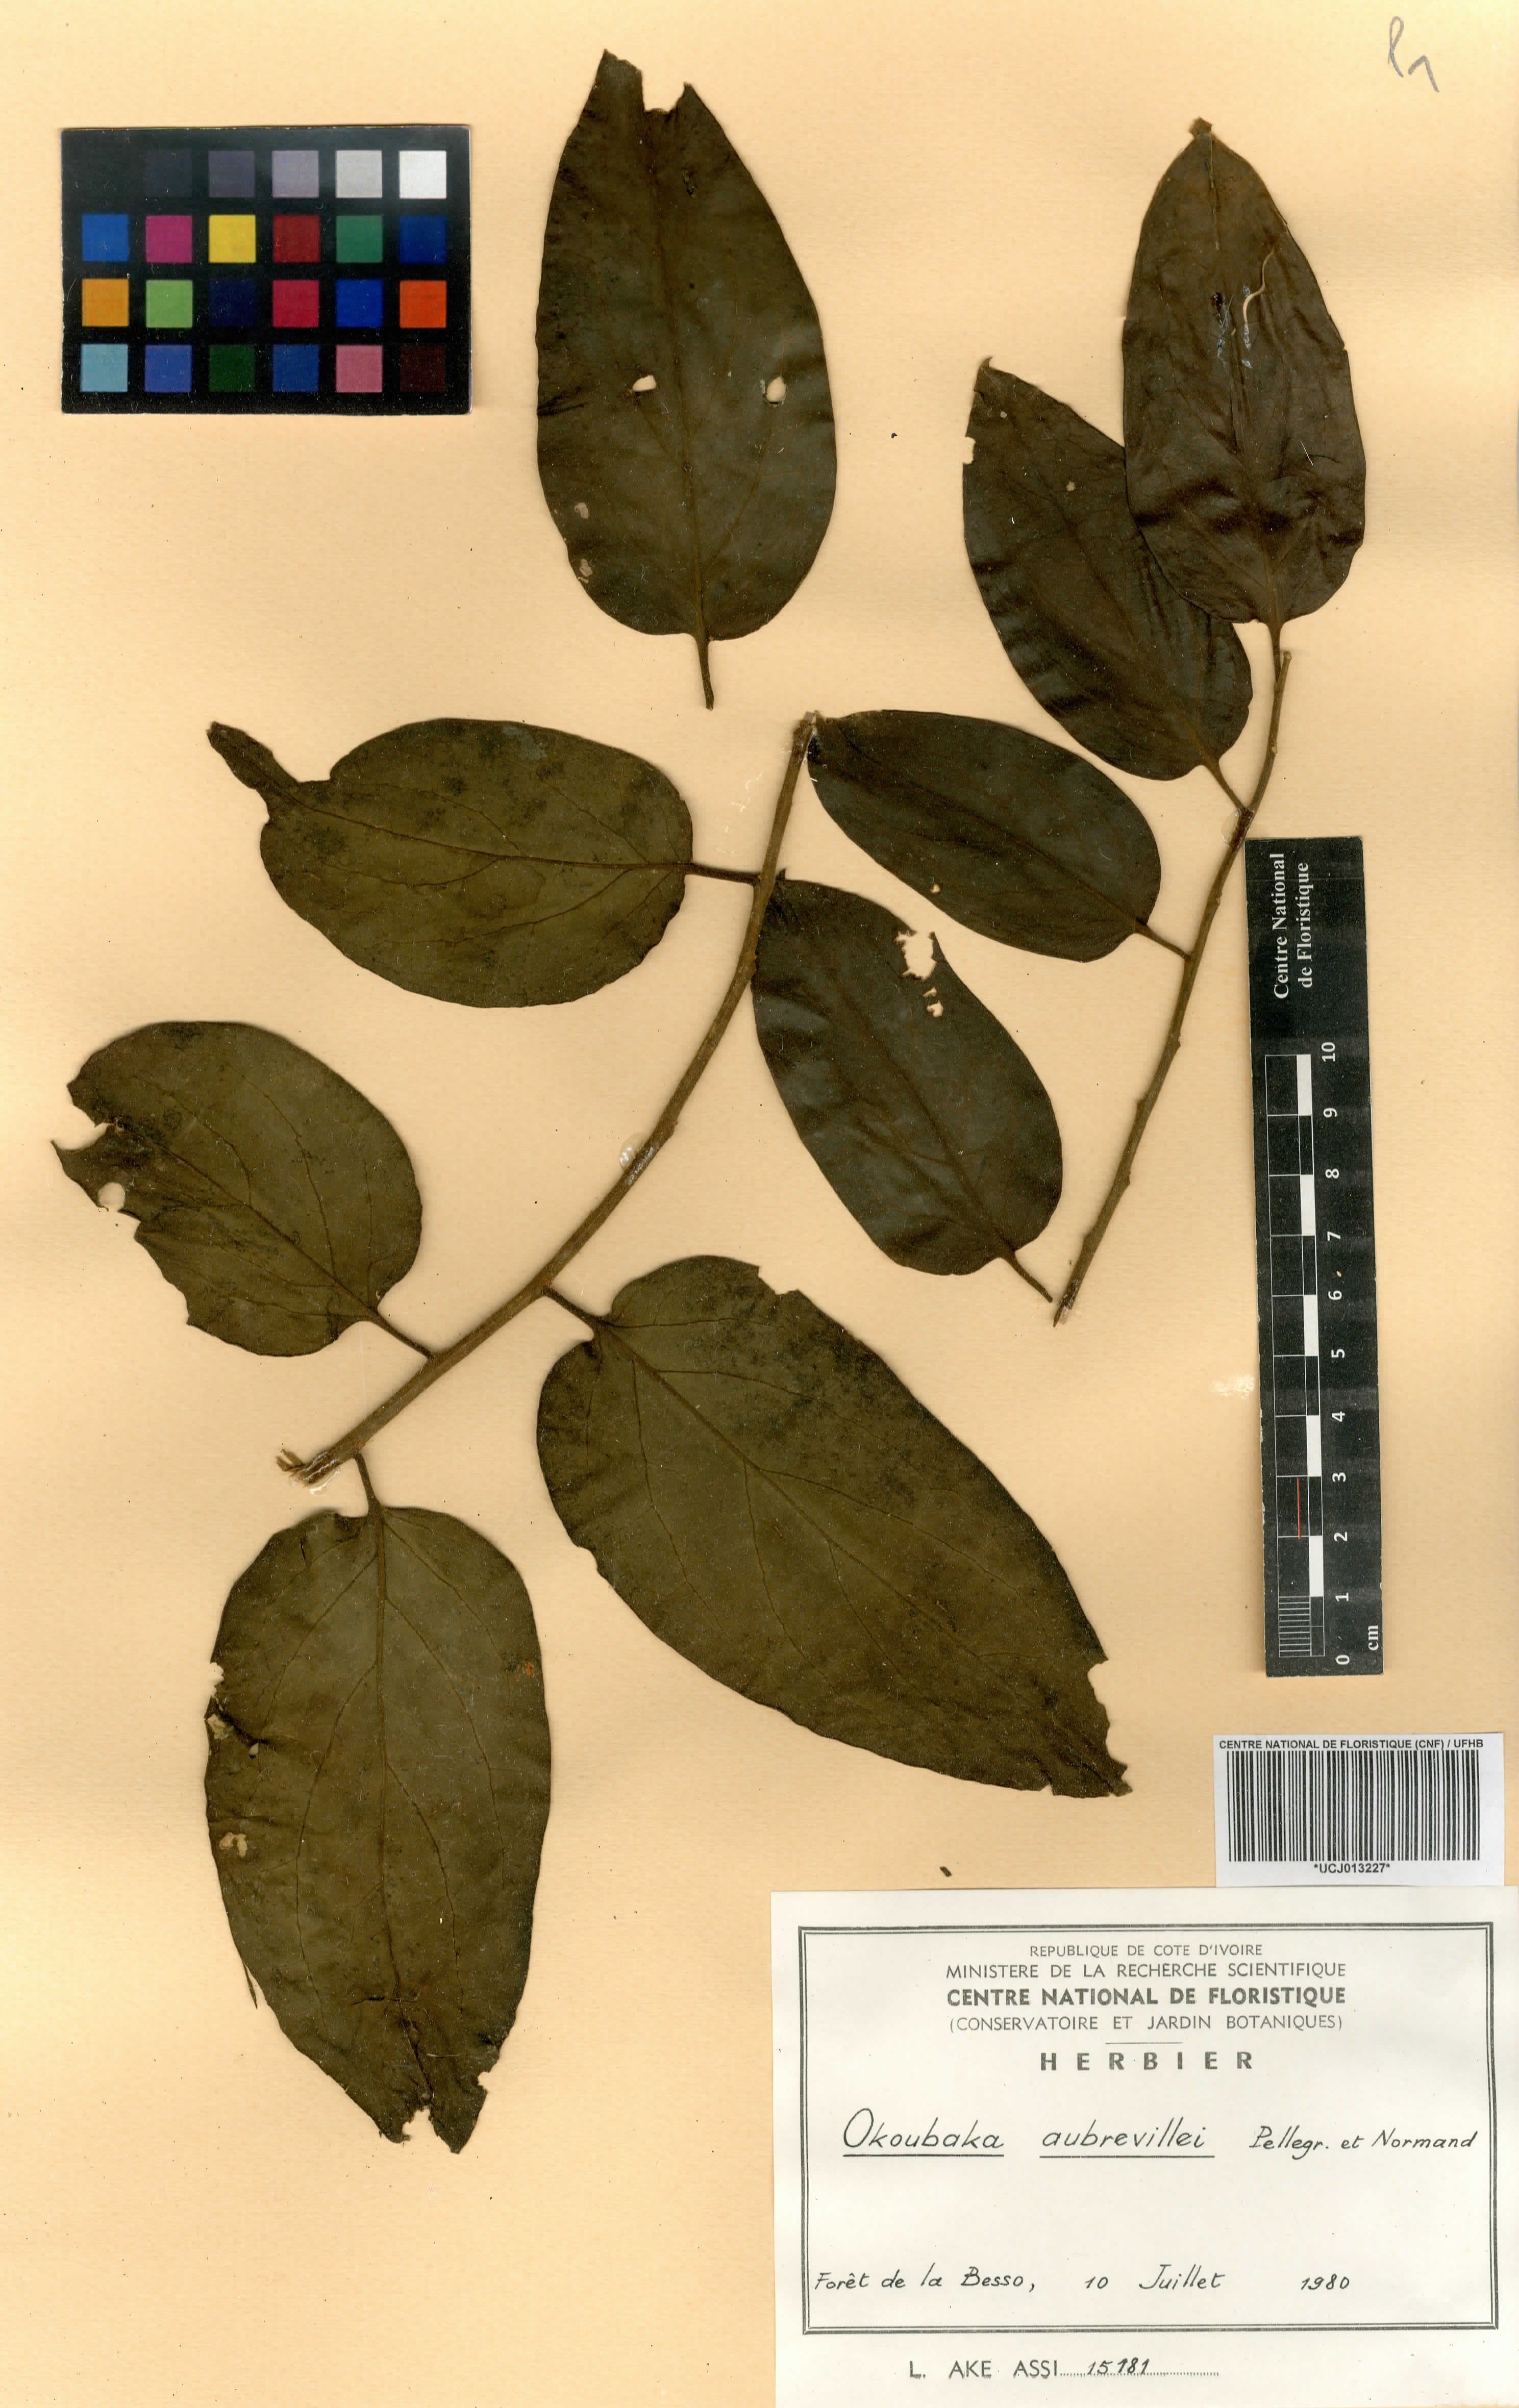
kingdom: Plantae
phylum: Tracheophyta
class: Magnoliopsida
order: Santalales
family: Cervantesiaceae
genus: Okoubaka
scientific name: Okoubaka aubrevillei
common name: Death tree
